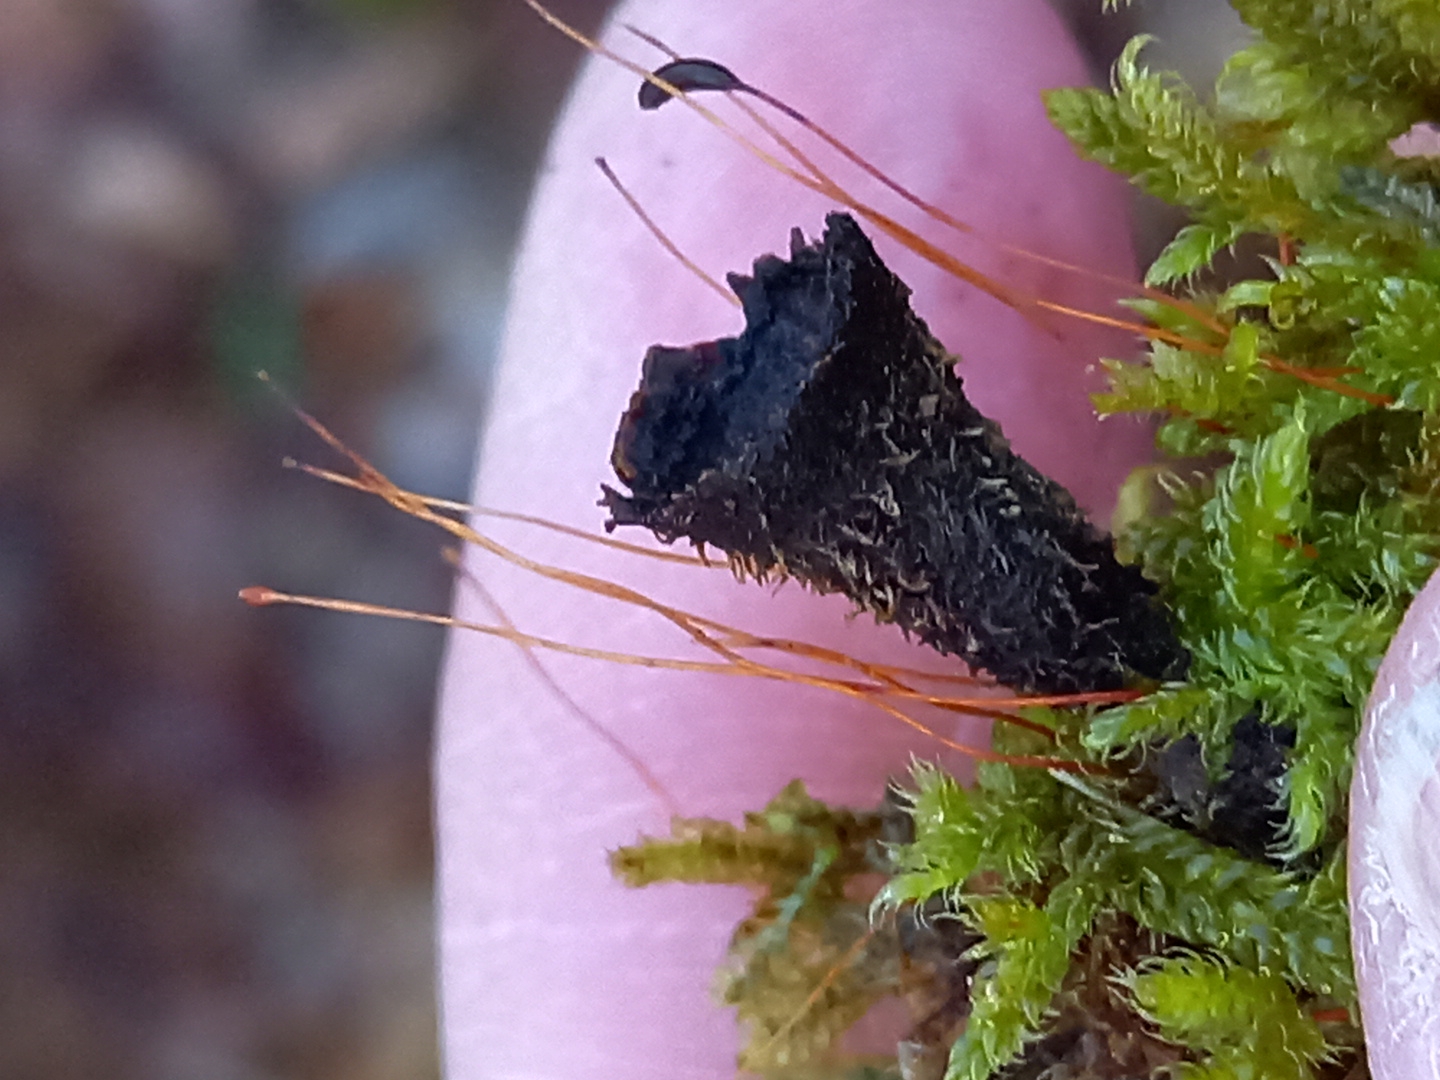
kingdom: Fungi
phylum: Basidiomycota
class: Agaricomycetes
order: Agaricales
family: Agaricaceae
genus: Cyathus
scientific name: Cyathus striatus
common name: stribet redesvamp
